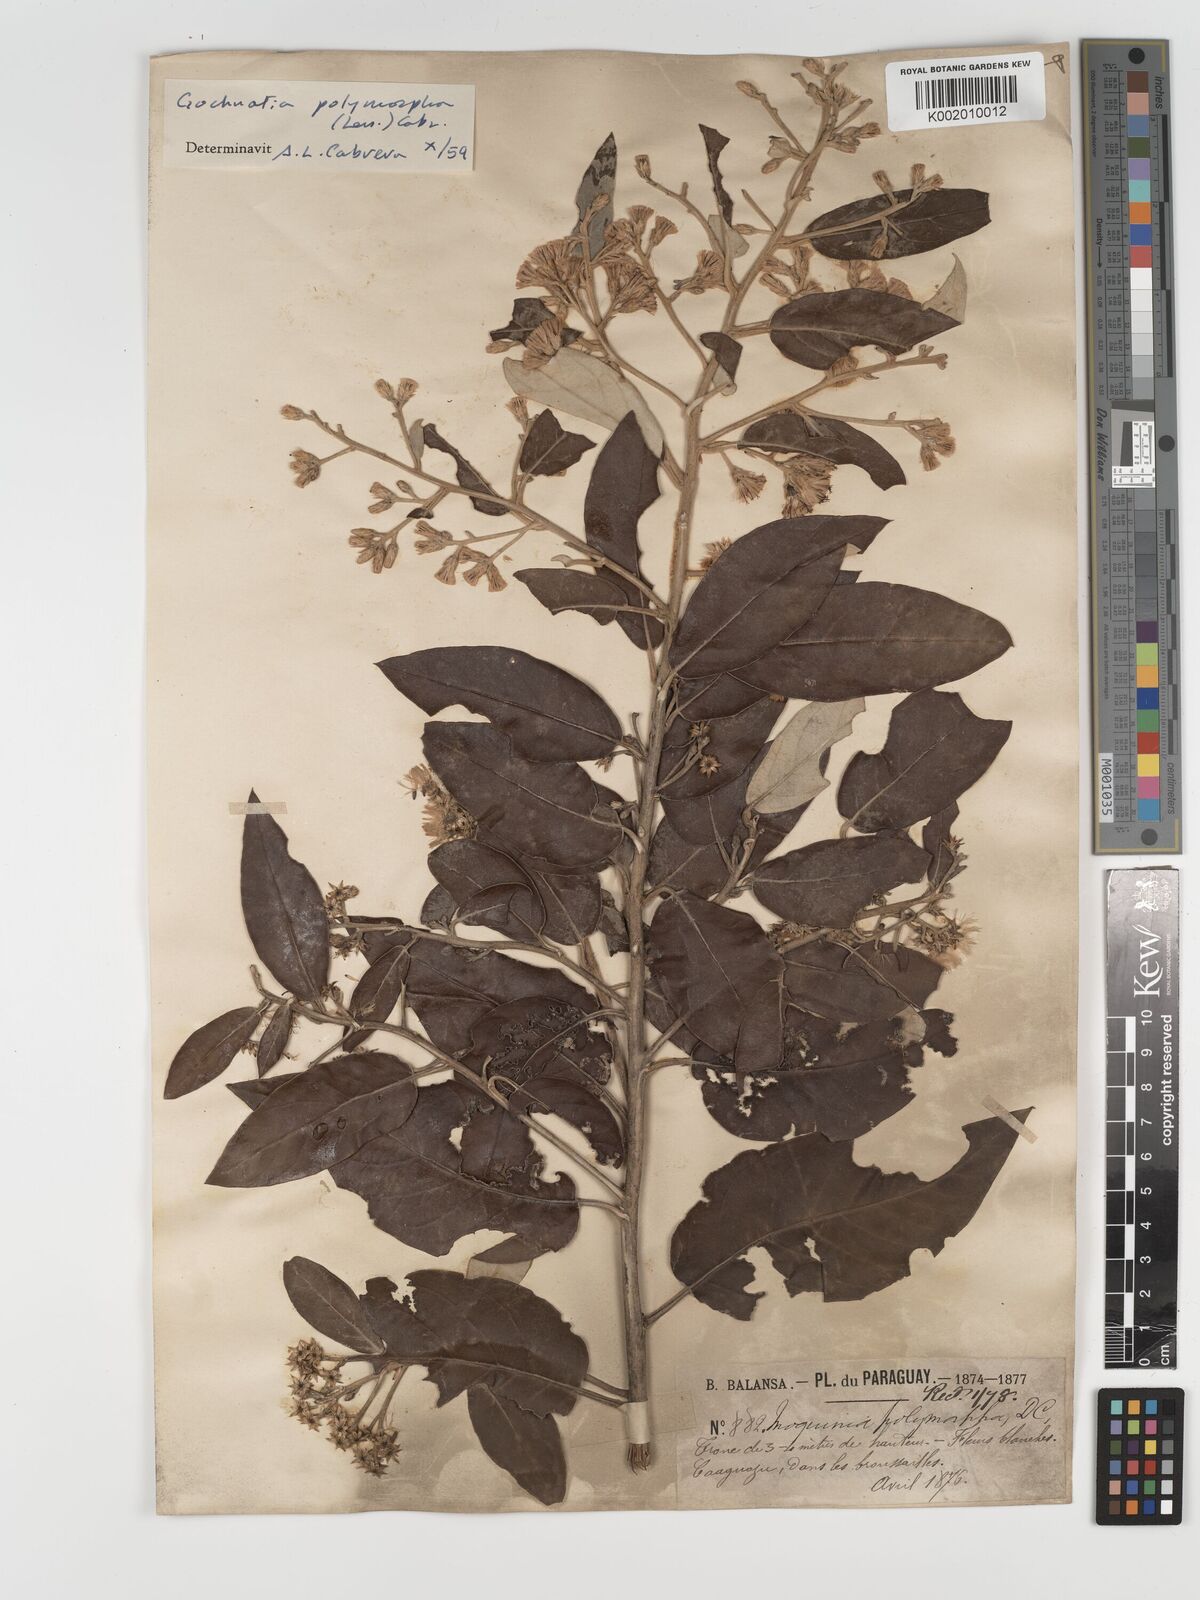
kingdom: Plantae
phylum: Tracheophyta
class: Magnoliopsida
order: Asterales
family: Asteraceae
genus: Moquiniastrum
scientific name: Moquiniastrum polymorphum
